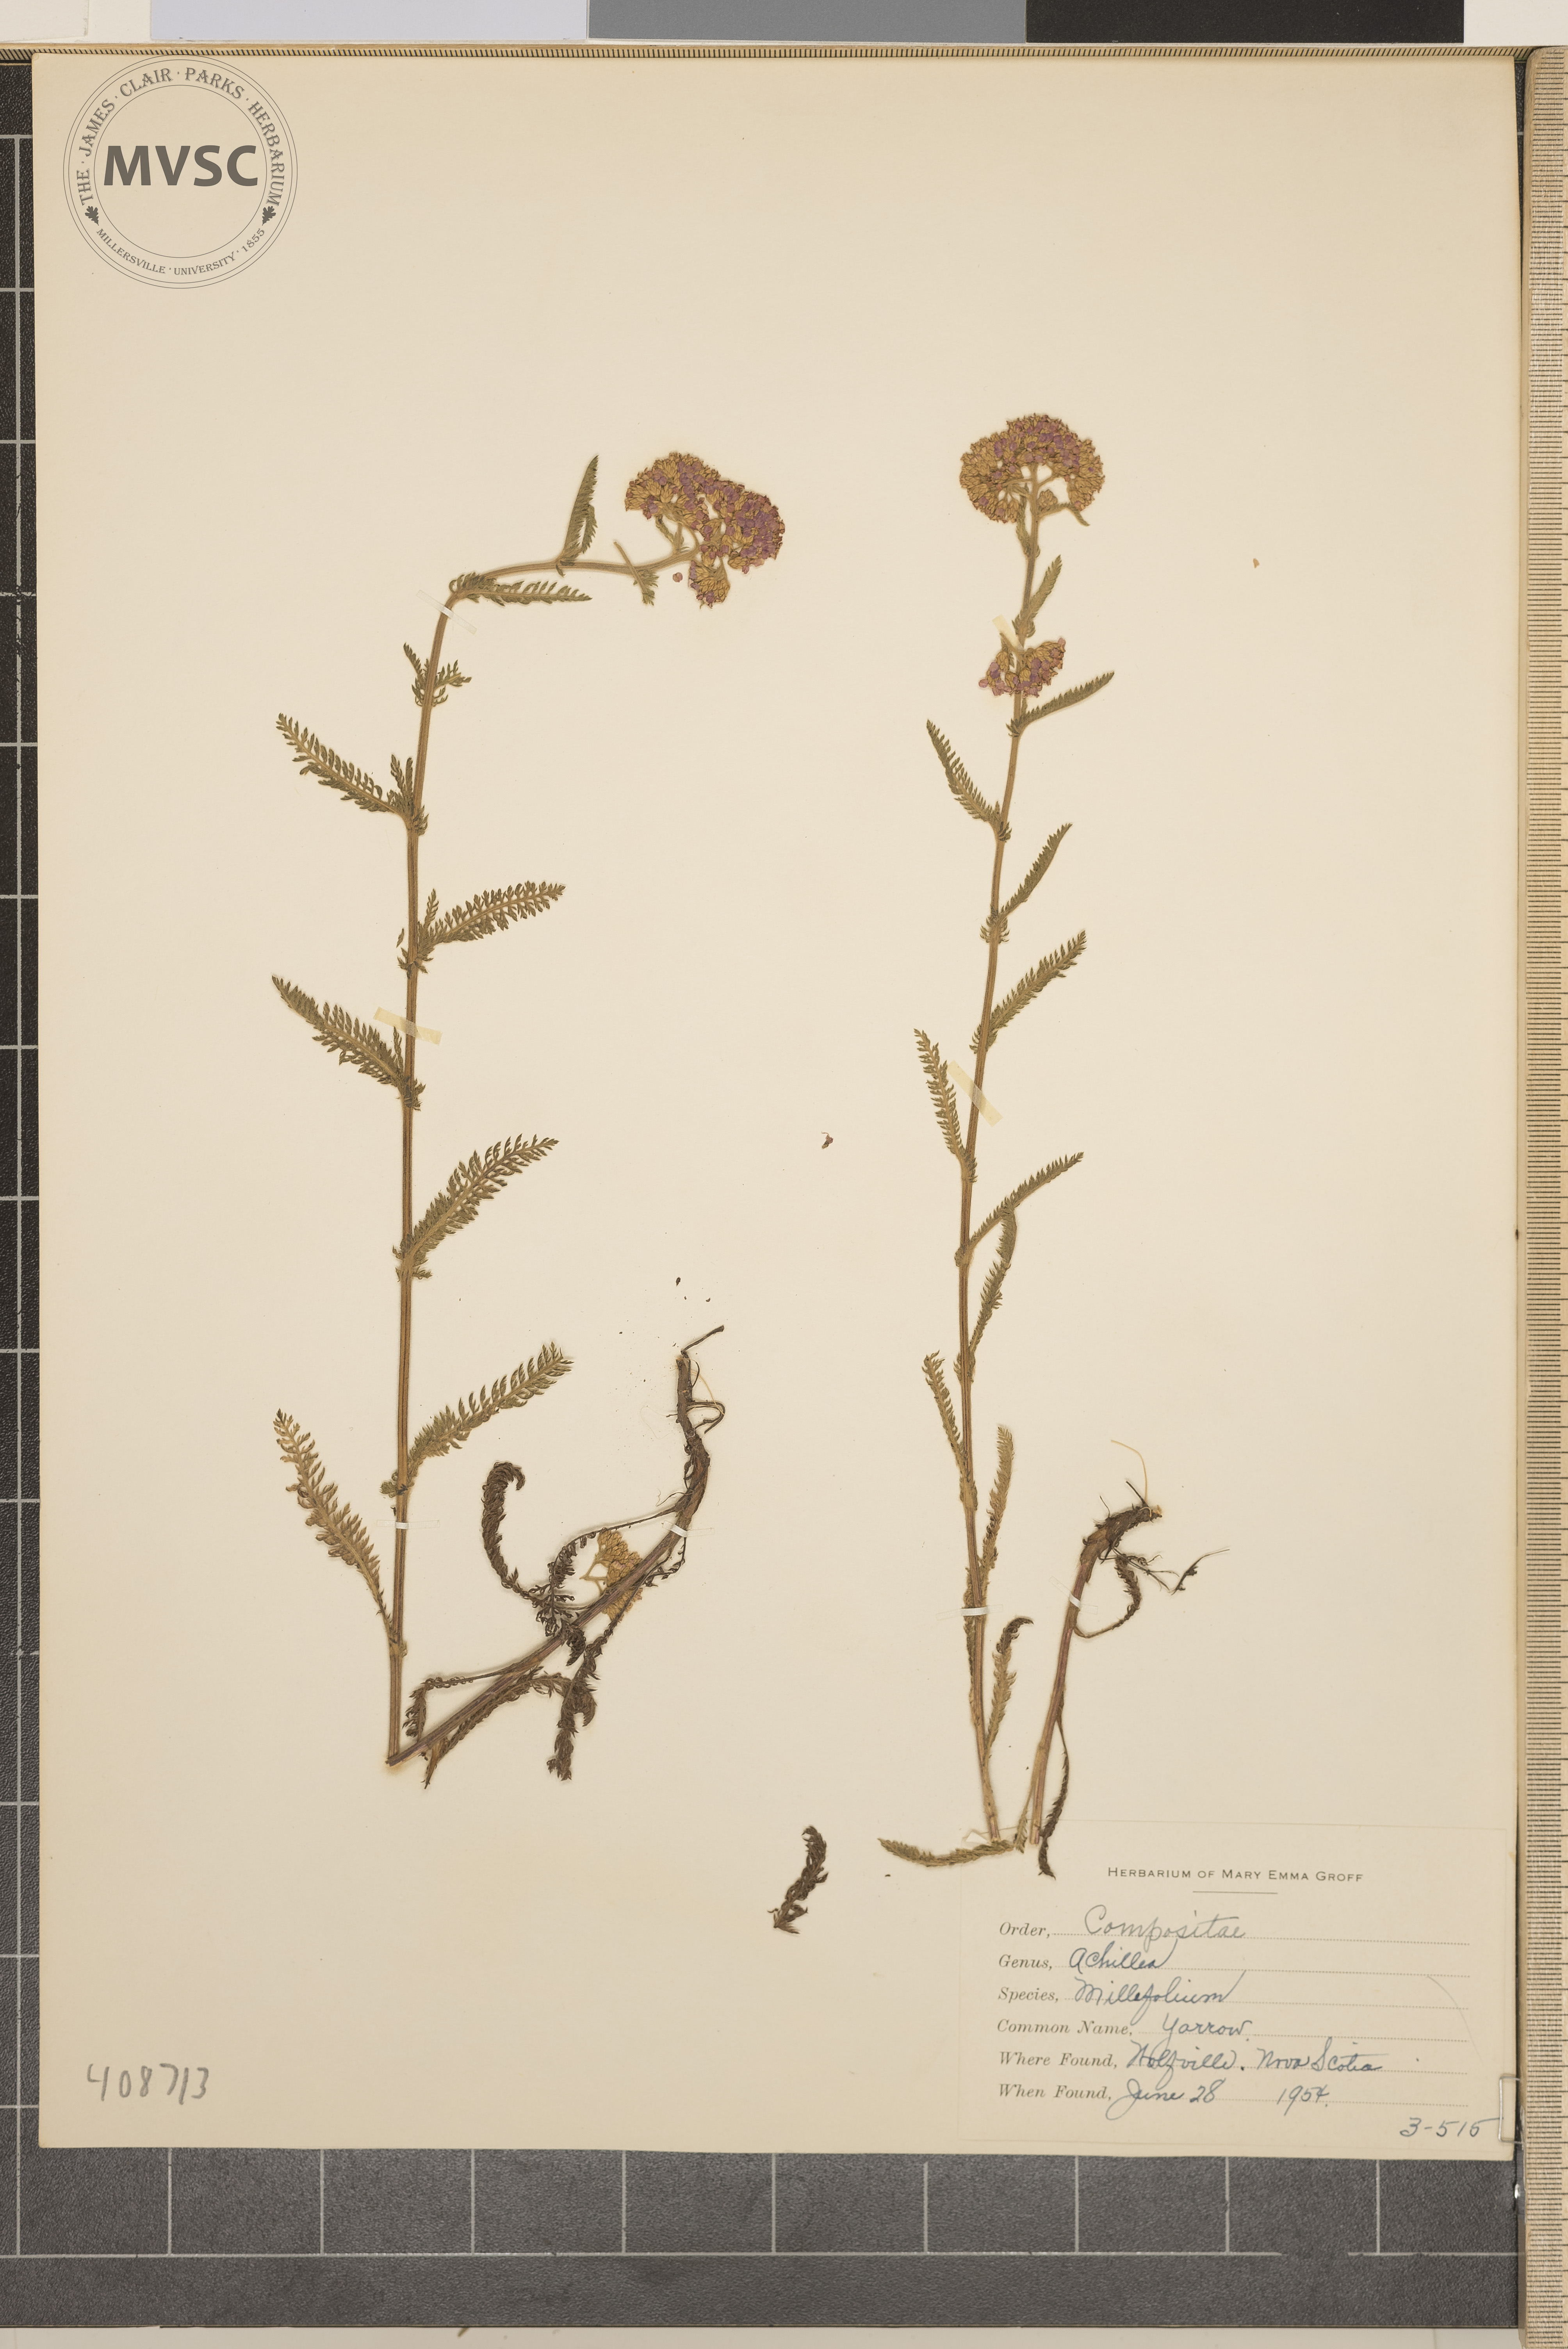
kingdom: Plantae
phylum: Tracheophyta
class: Magnoliopsida
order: Asterales
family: Asteraceae
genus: Achillea
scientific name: Achillea millefolium
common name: Yarrow
